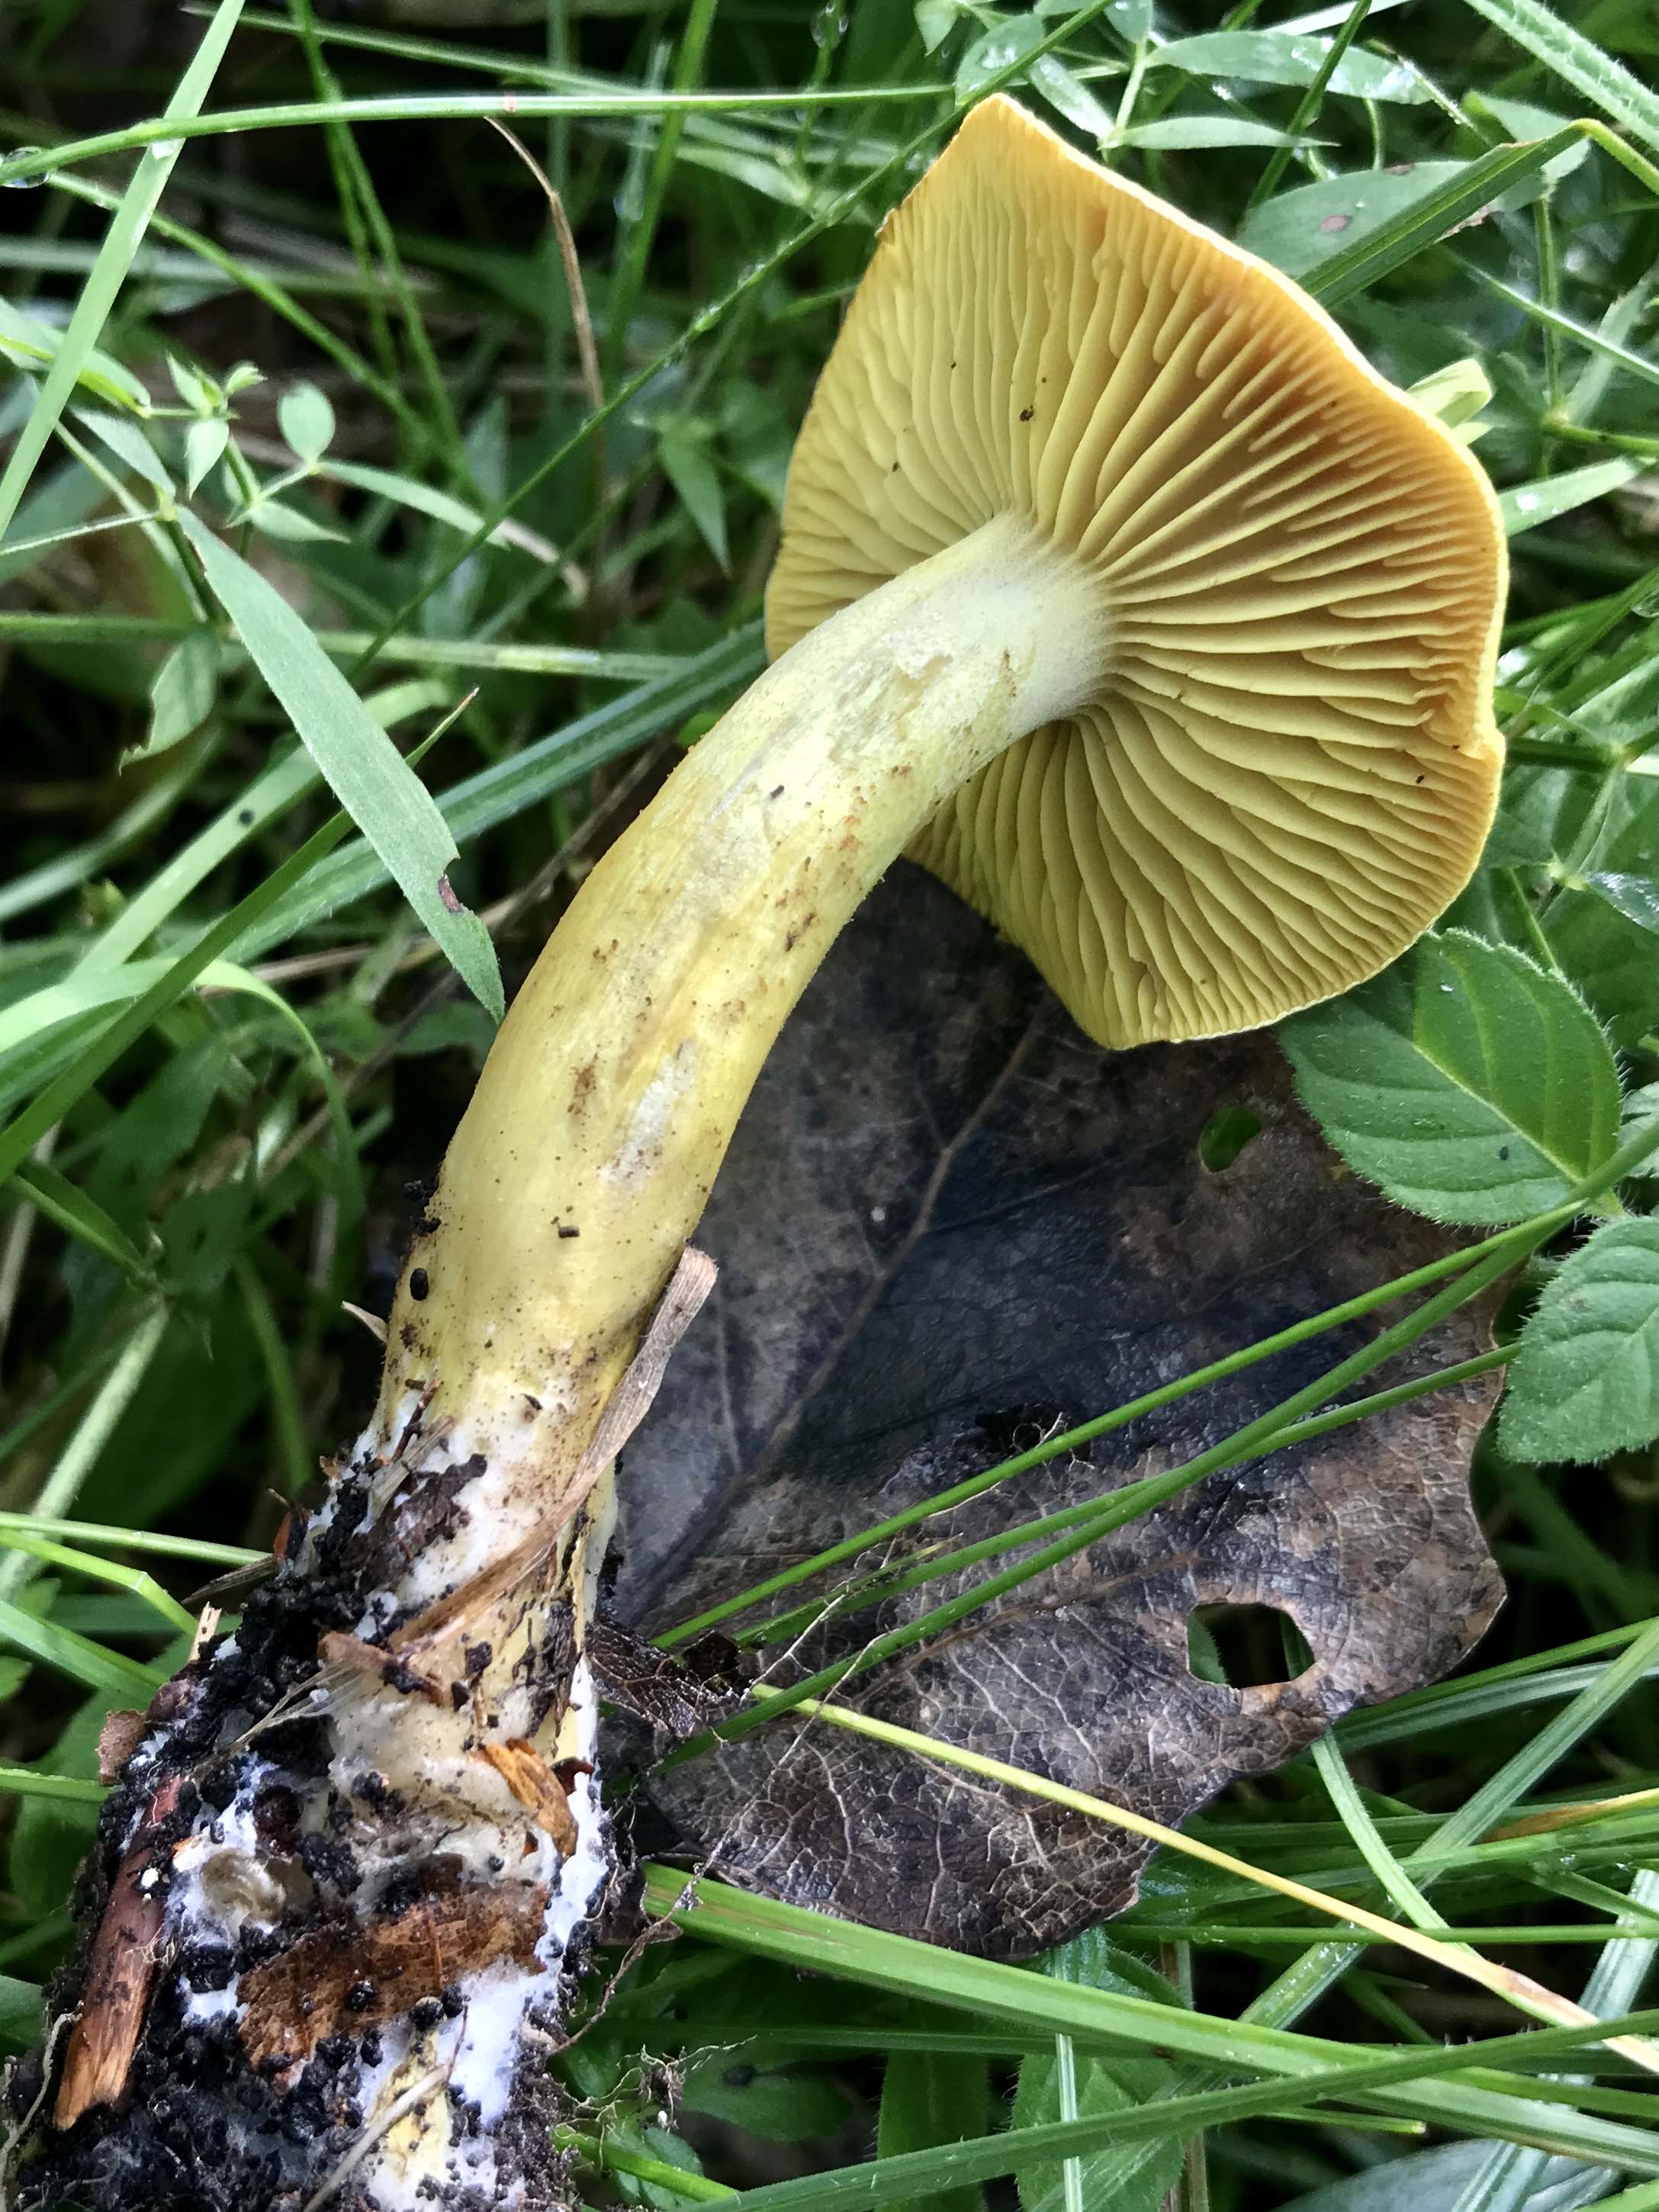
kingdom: Fungi
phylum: Basidiomycota
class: Agaricomycetes
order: Agaricales
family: Tricholomataceae
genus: Tricholoma
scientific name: Tricholoma sulphureum
